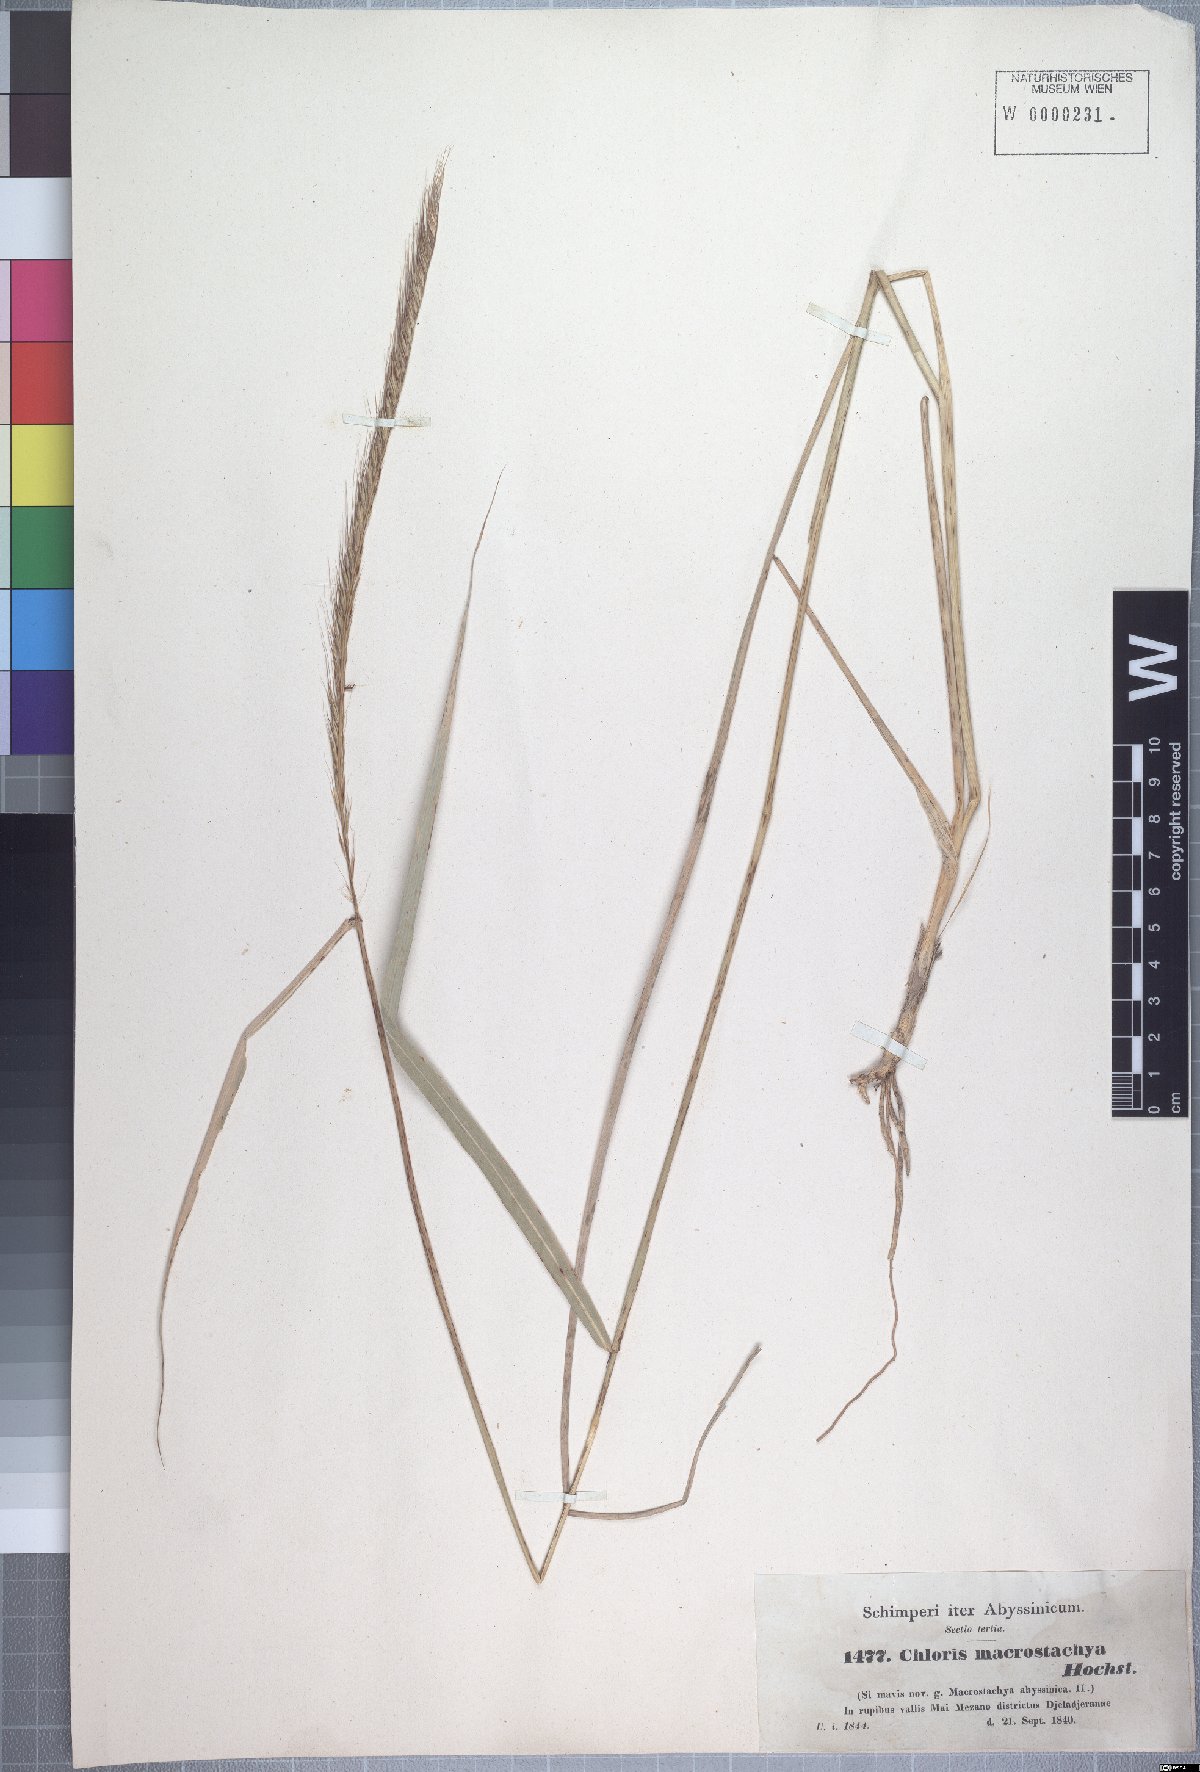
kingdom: Plantae
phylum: Tracheophyta
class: Liliopsida
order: Poales
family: Poaceae
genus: Enteropogon
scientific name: Enteropogon macrostachyus
